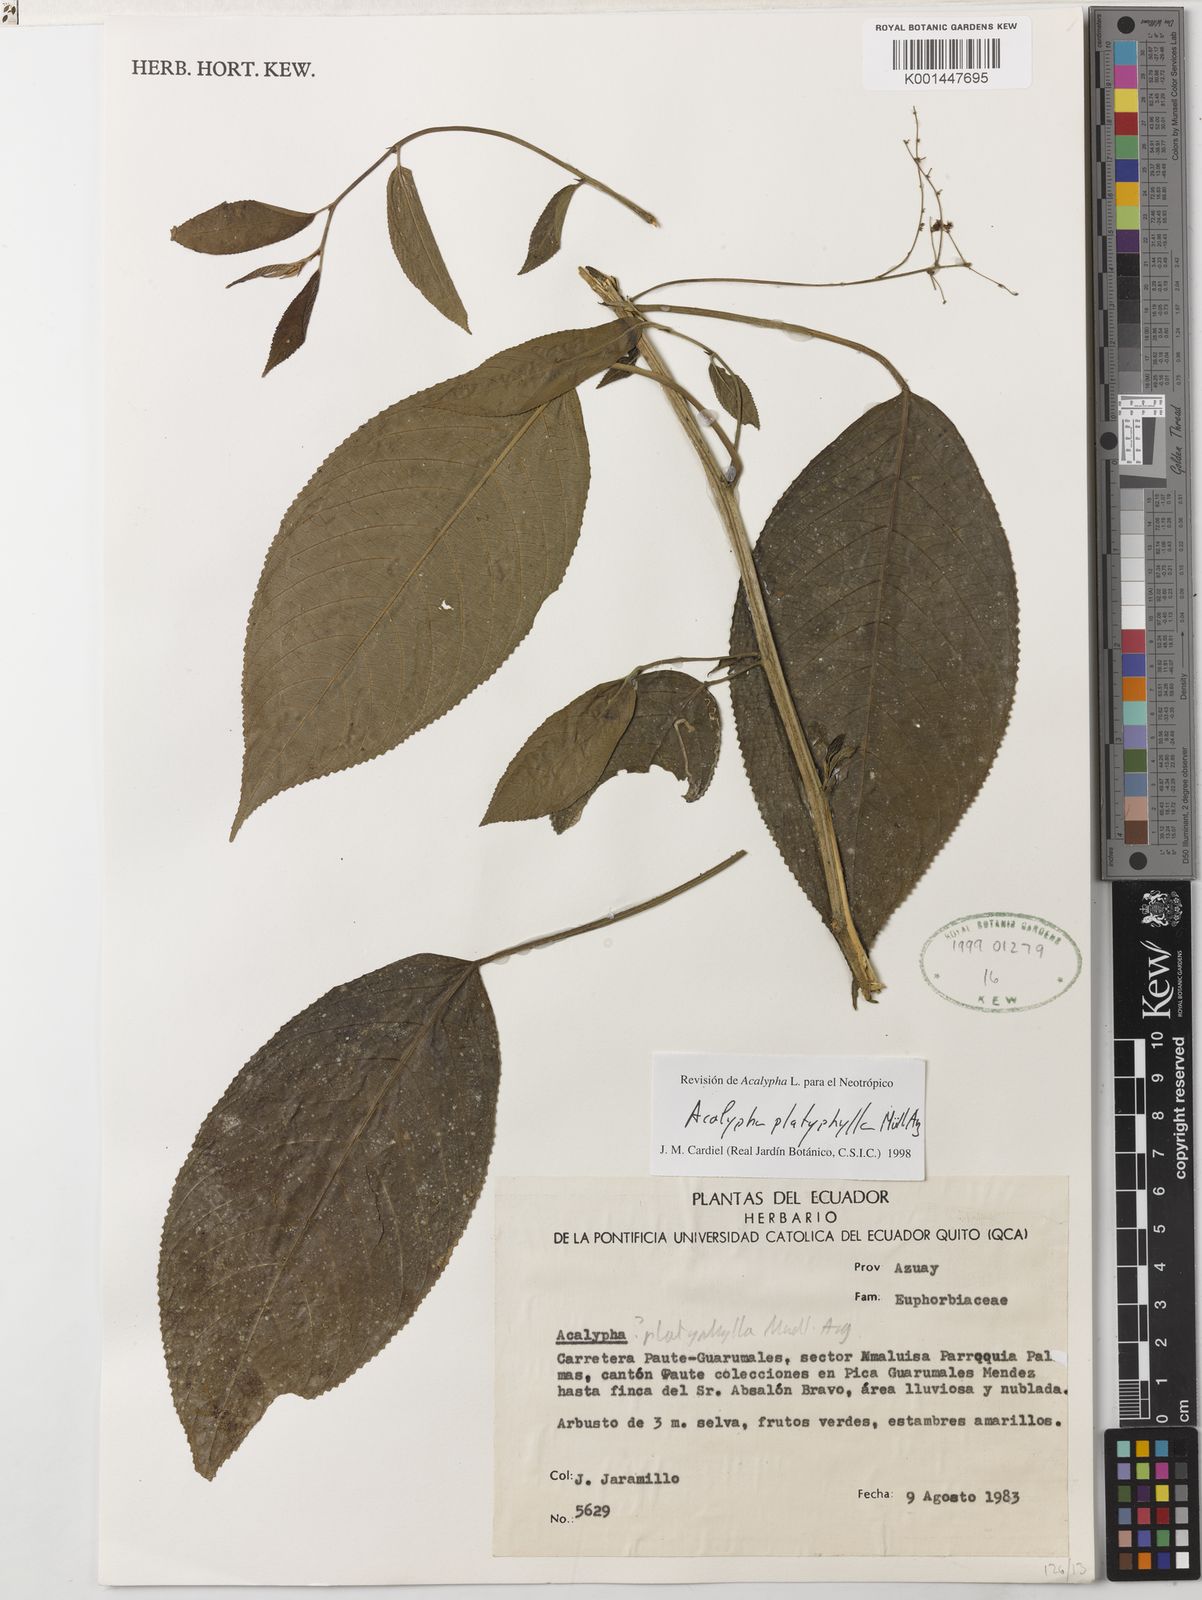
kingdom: Plantae
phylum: Tracheophyta
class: Magnoliopsida
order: Malpighiales
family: Euphorbiaceae
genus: Acalypha
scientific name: Acalypha platyphylla
